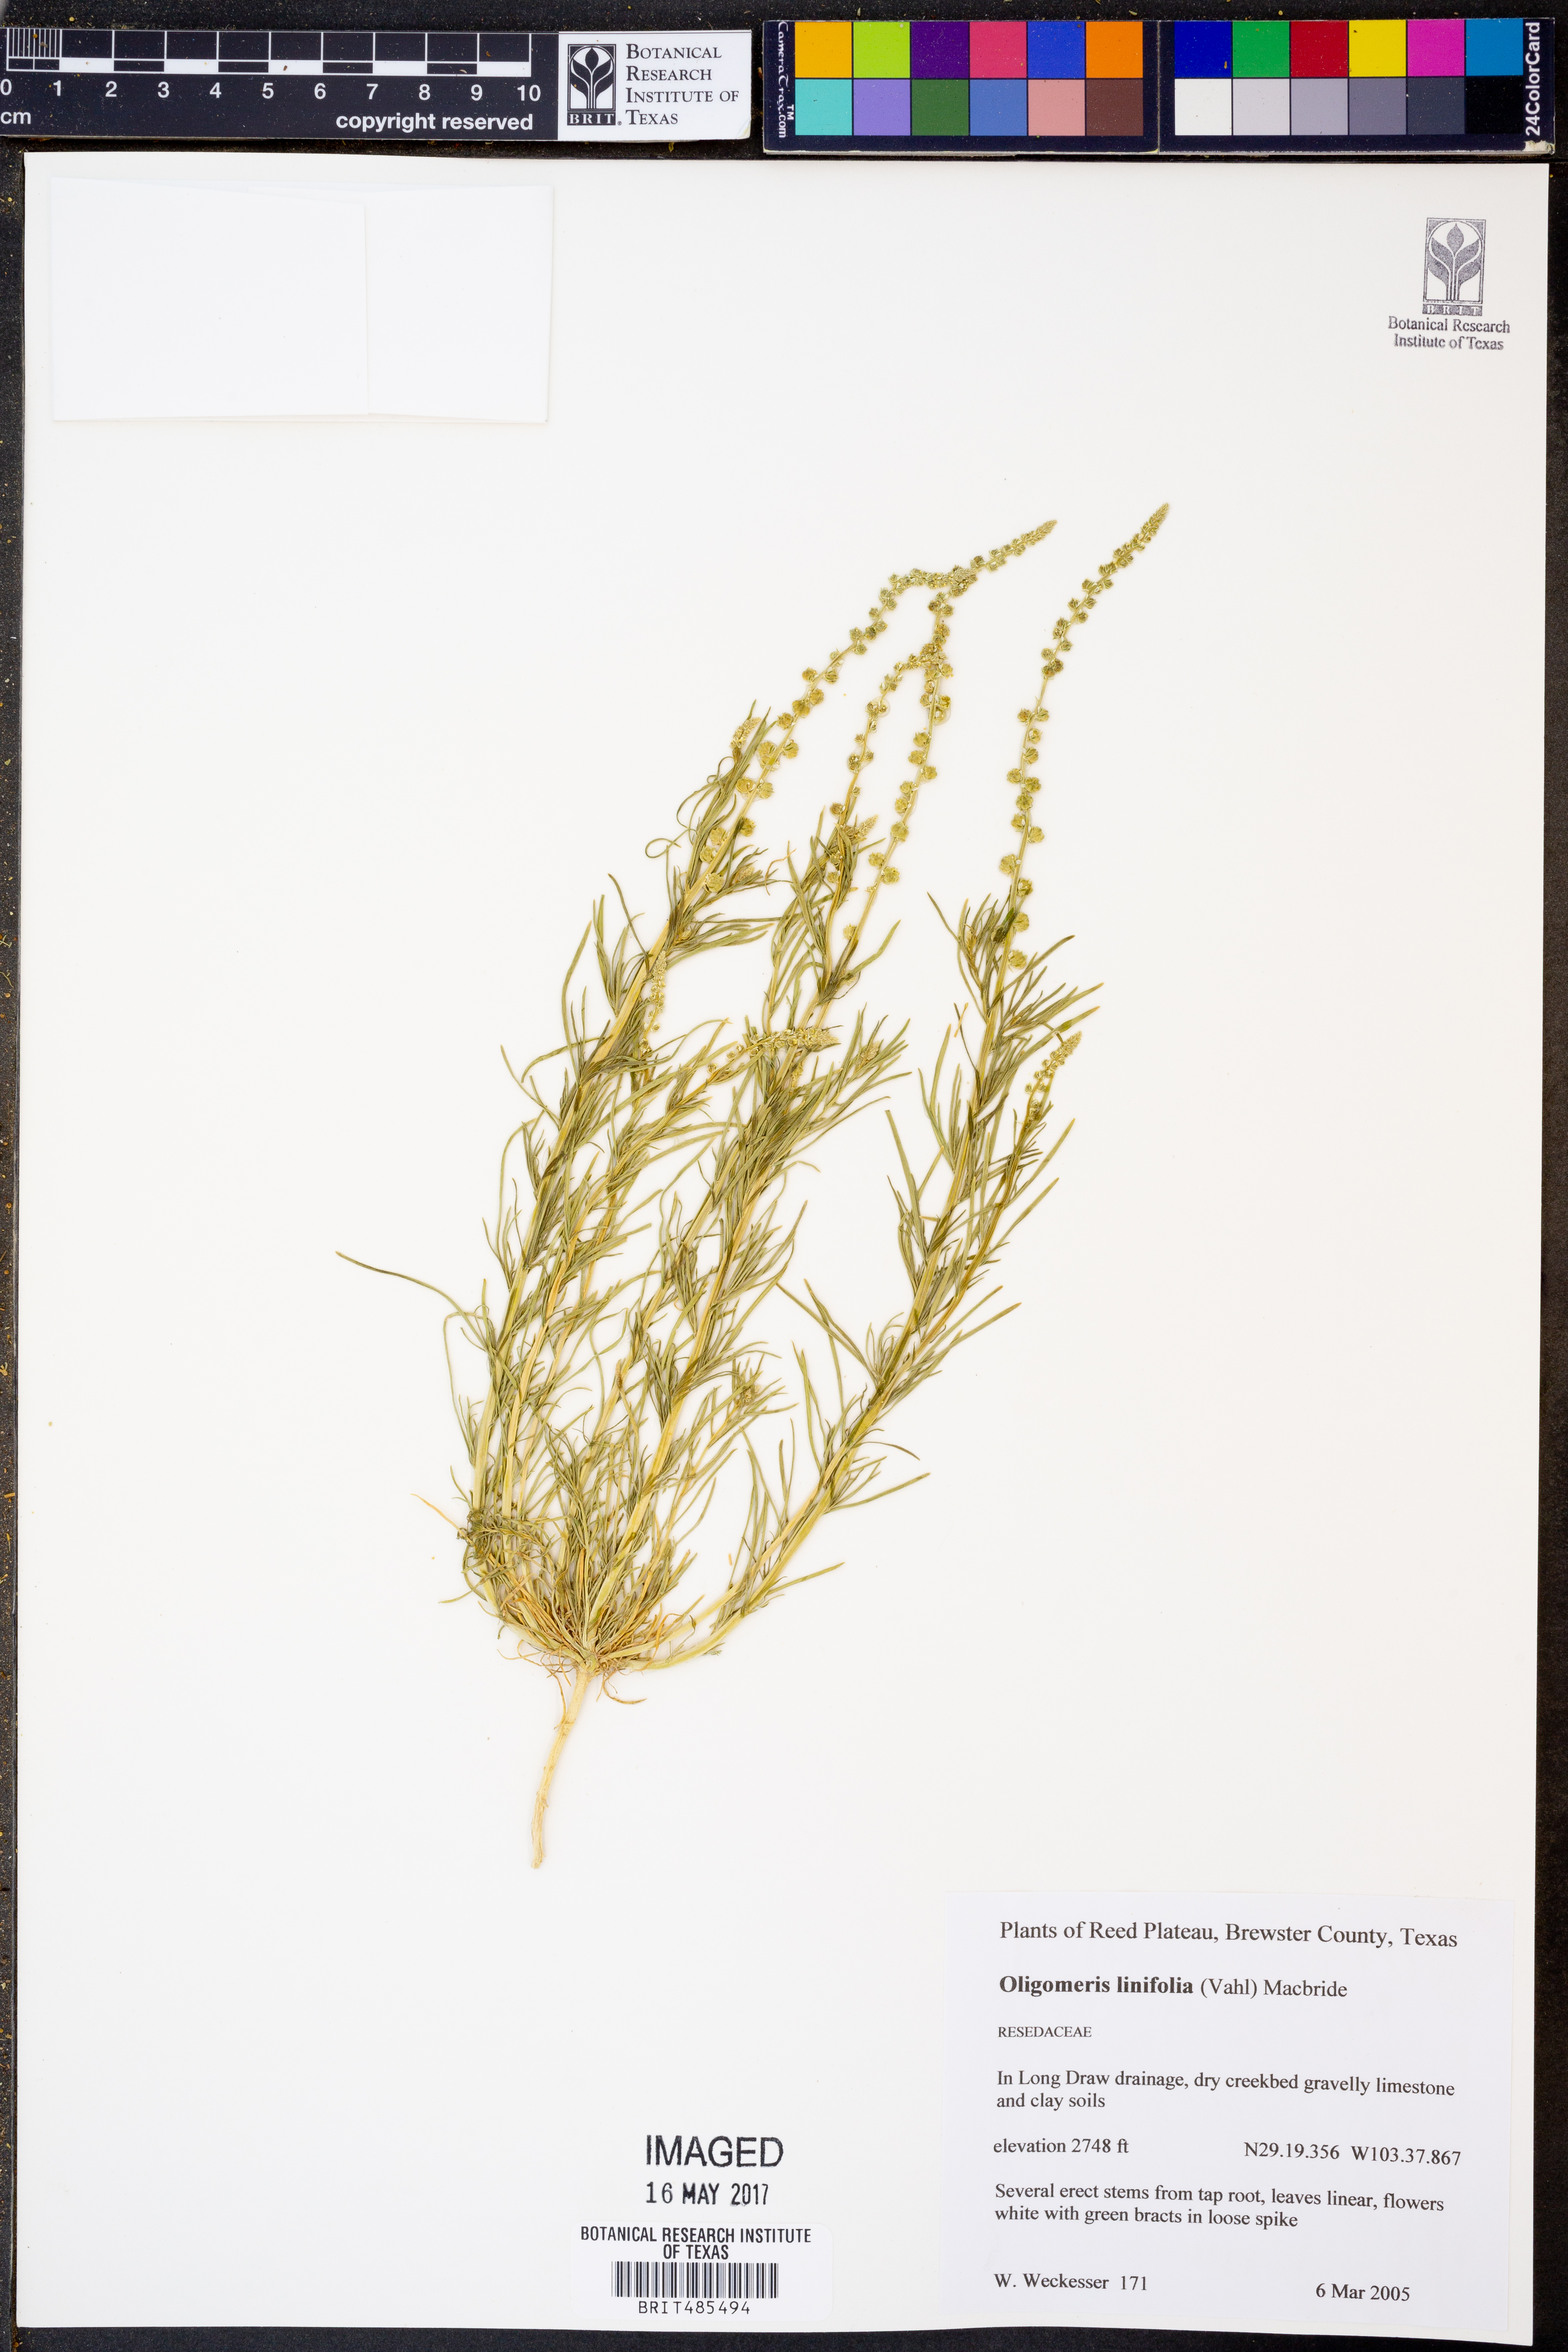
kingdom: Plantae
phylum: Tracheophyta
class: Magnoliopsida
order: Brassicales
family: Resedaceae
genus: Oligomeris
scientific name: Oligomeris linifolia
